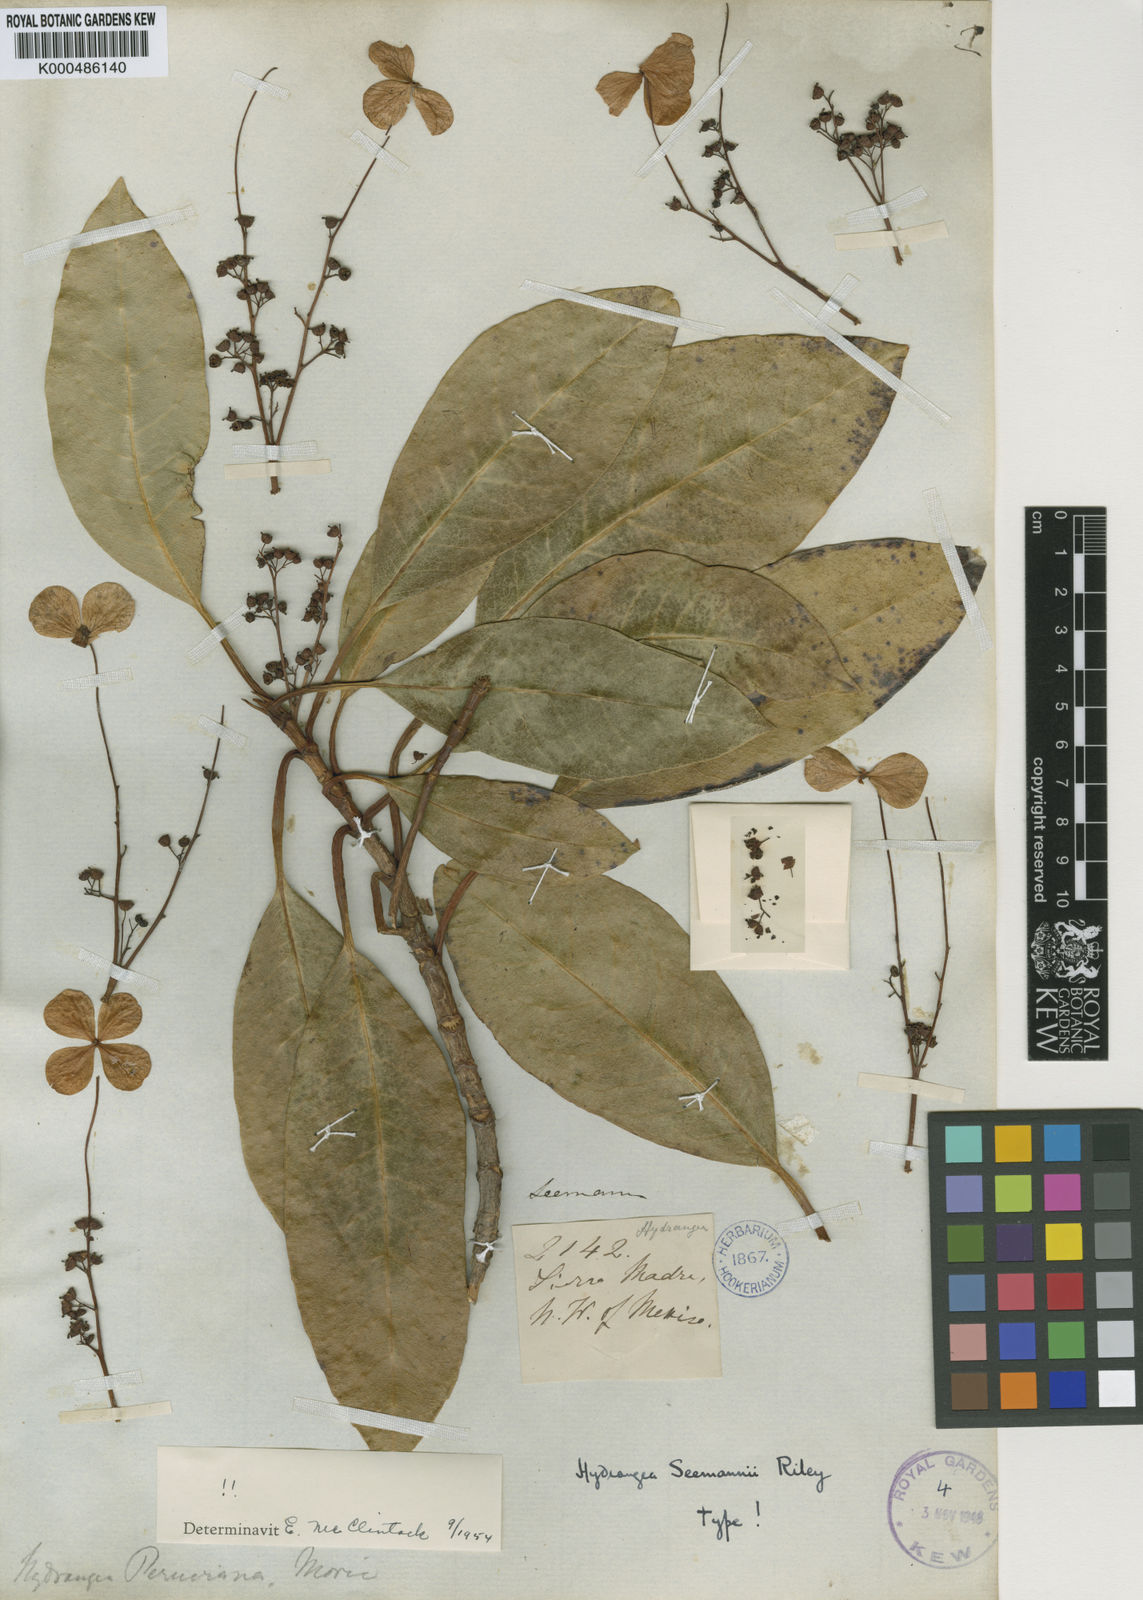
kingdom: Plantae
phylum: Tracheophyta
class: Magnoliopsida
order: Cornales
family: Hydrangeaceae
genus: Hydrangea
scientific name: Hydrangea asterolasia
